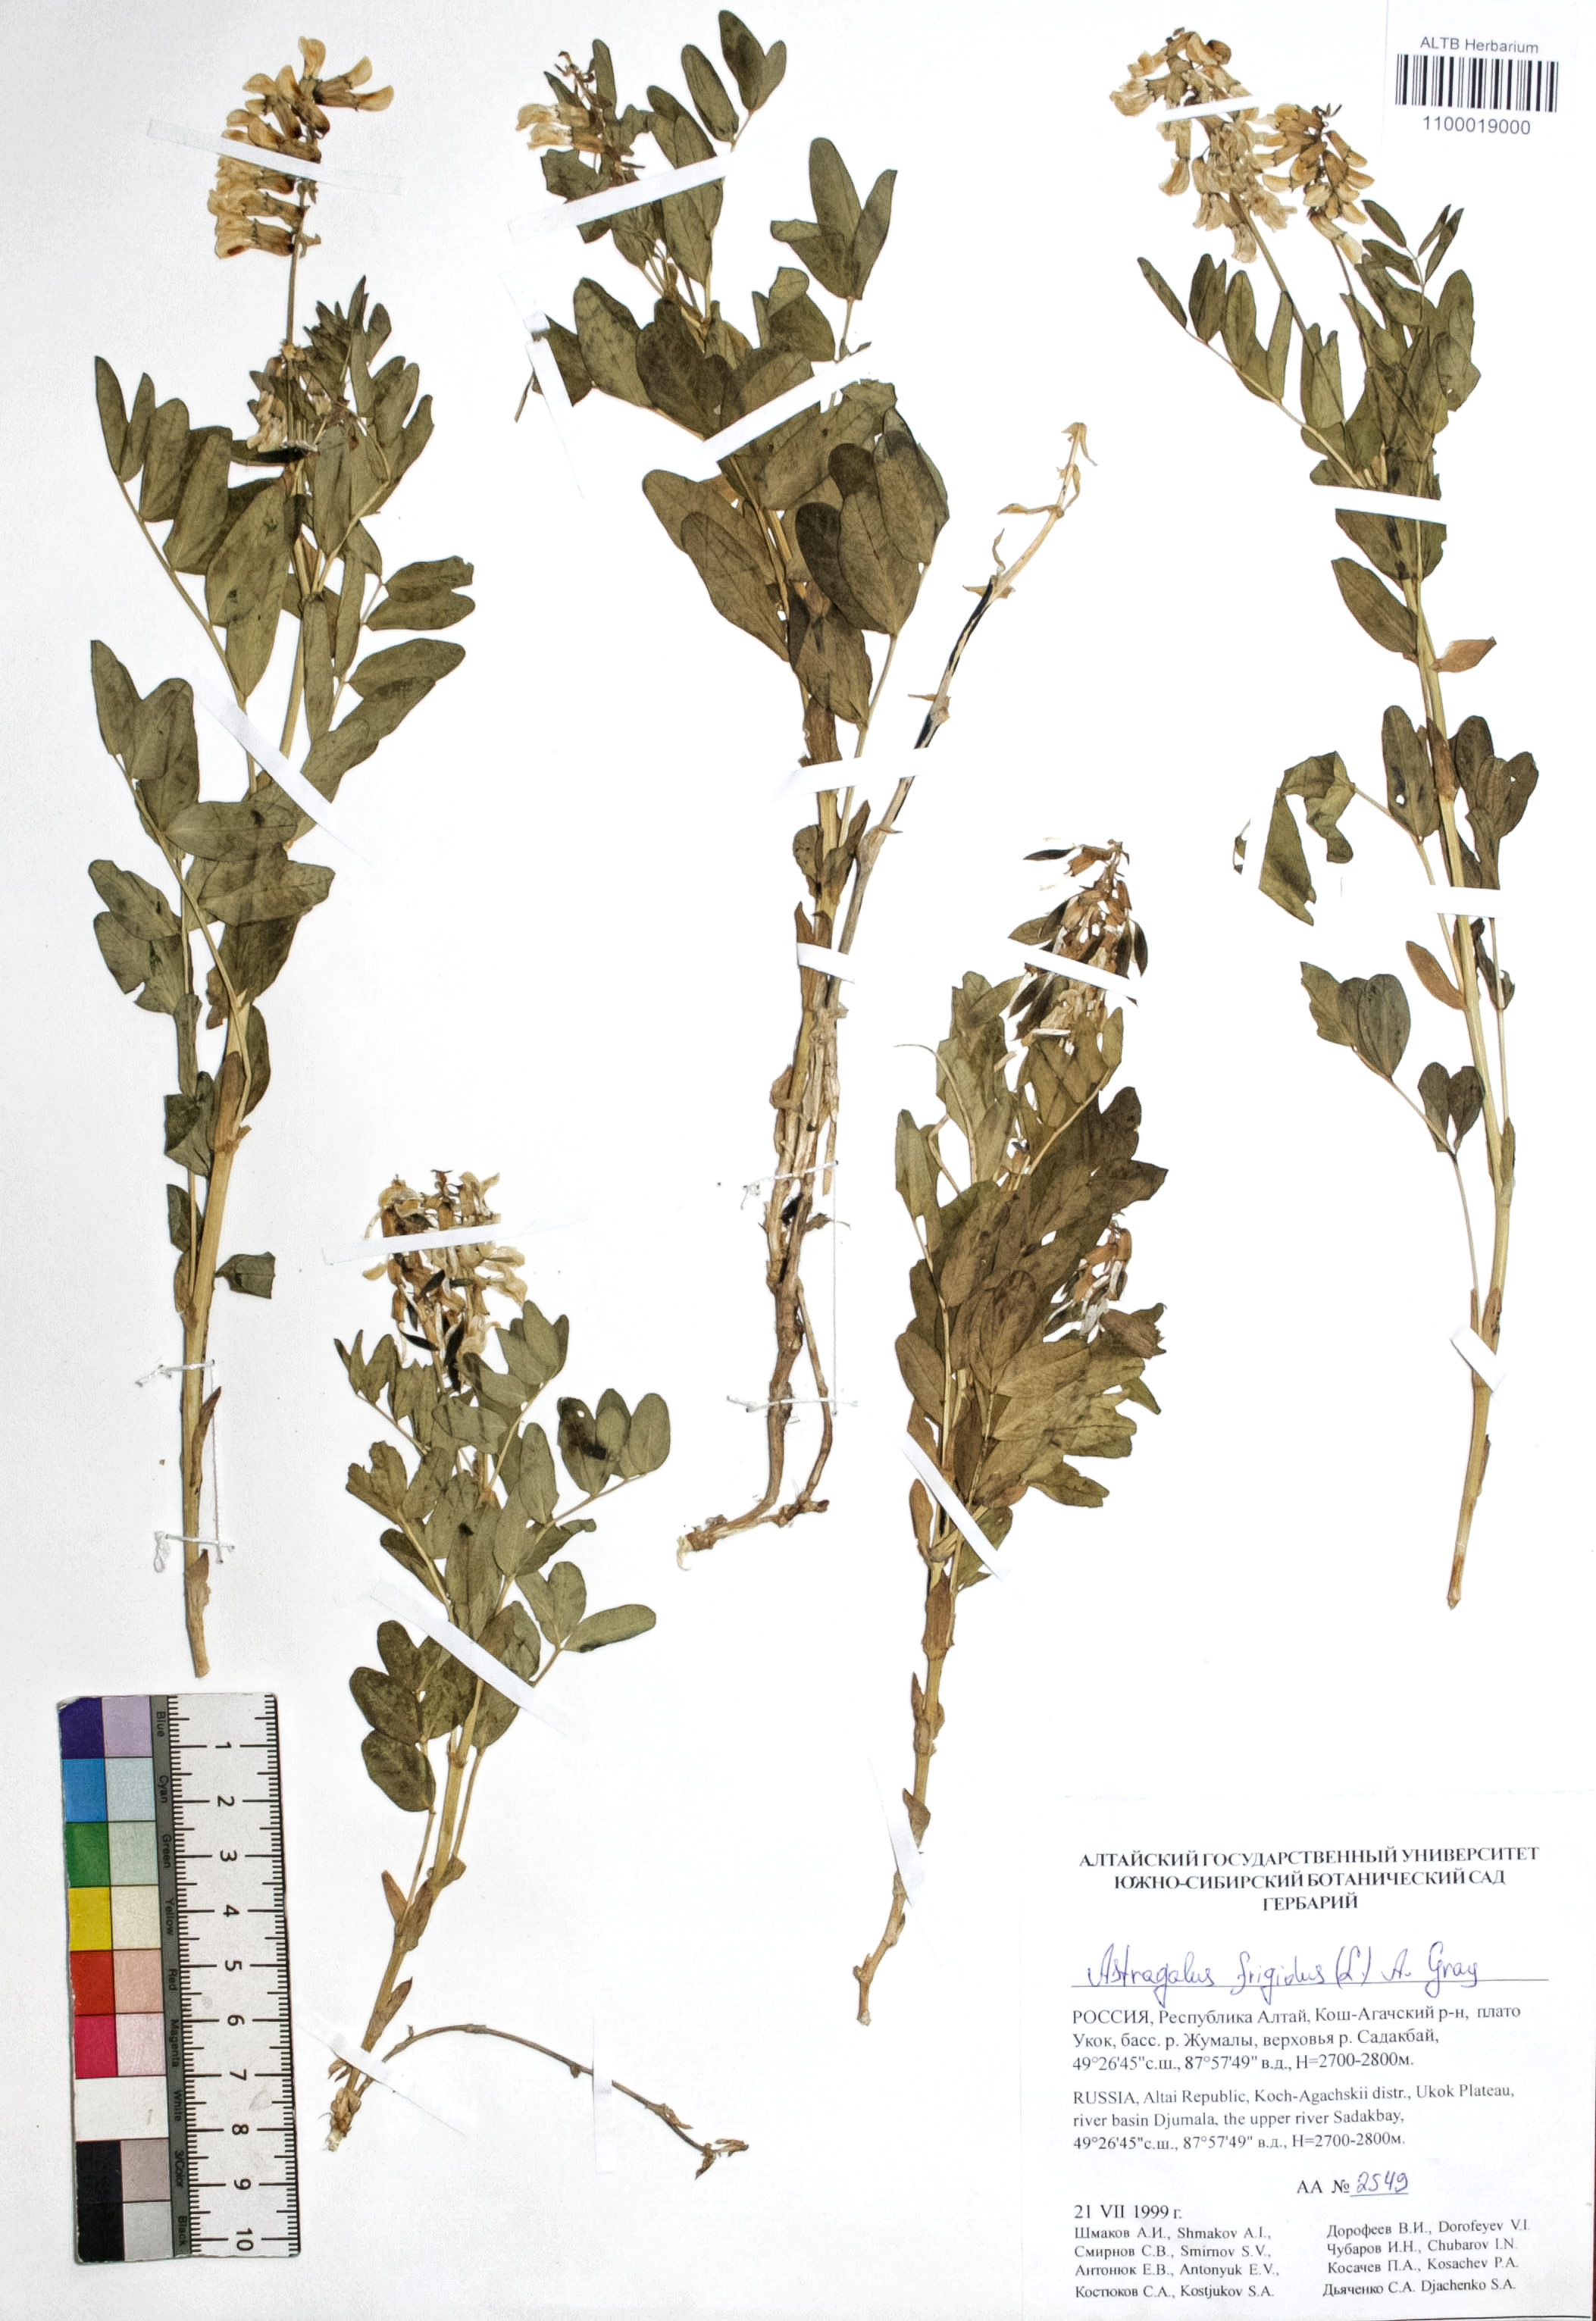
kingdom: Plantae
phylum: Tracheophyta
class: Magnoliopsida
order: Fabales
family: Fabaceae
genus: Astragalus
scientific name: Astragalus frigidus
